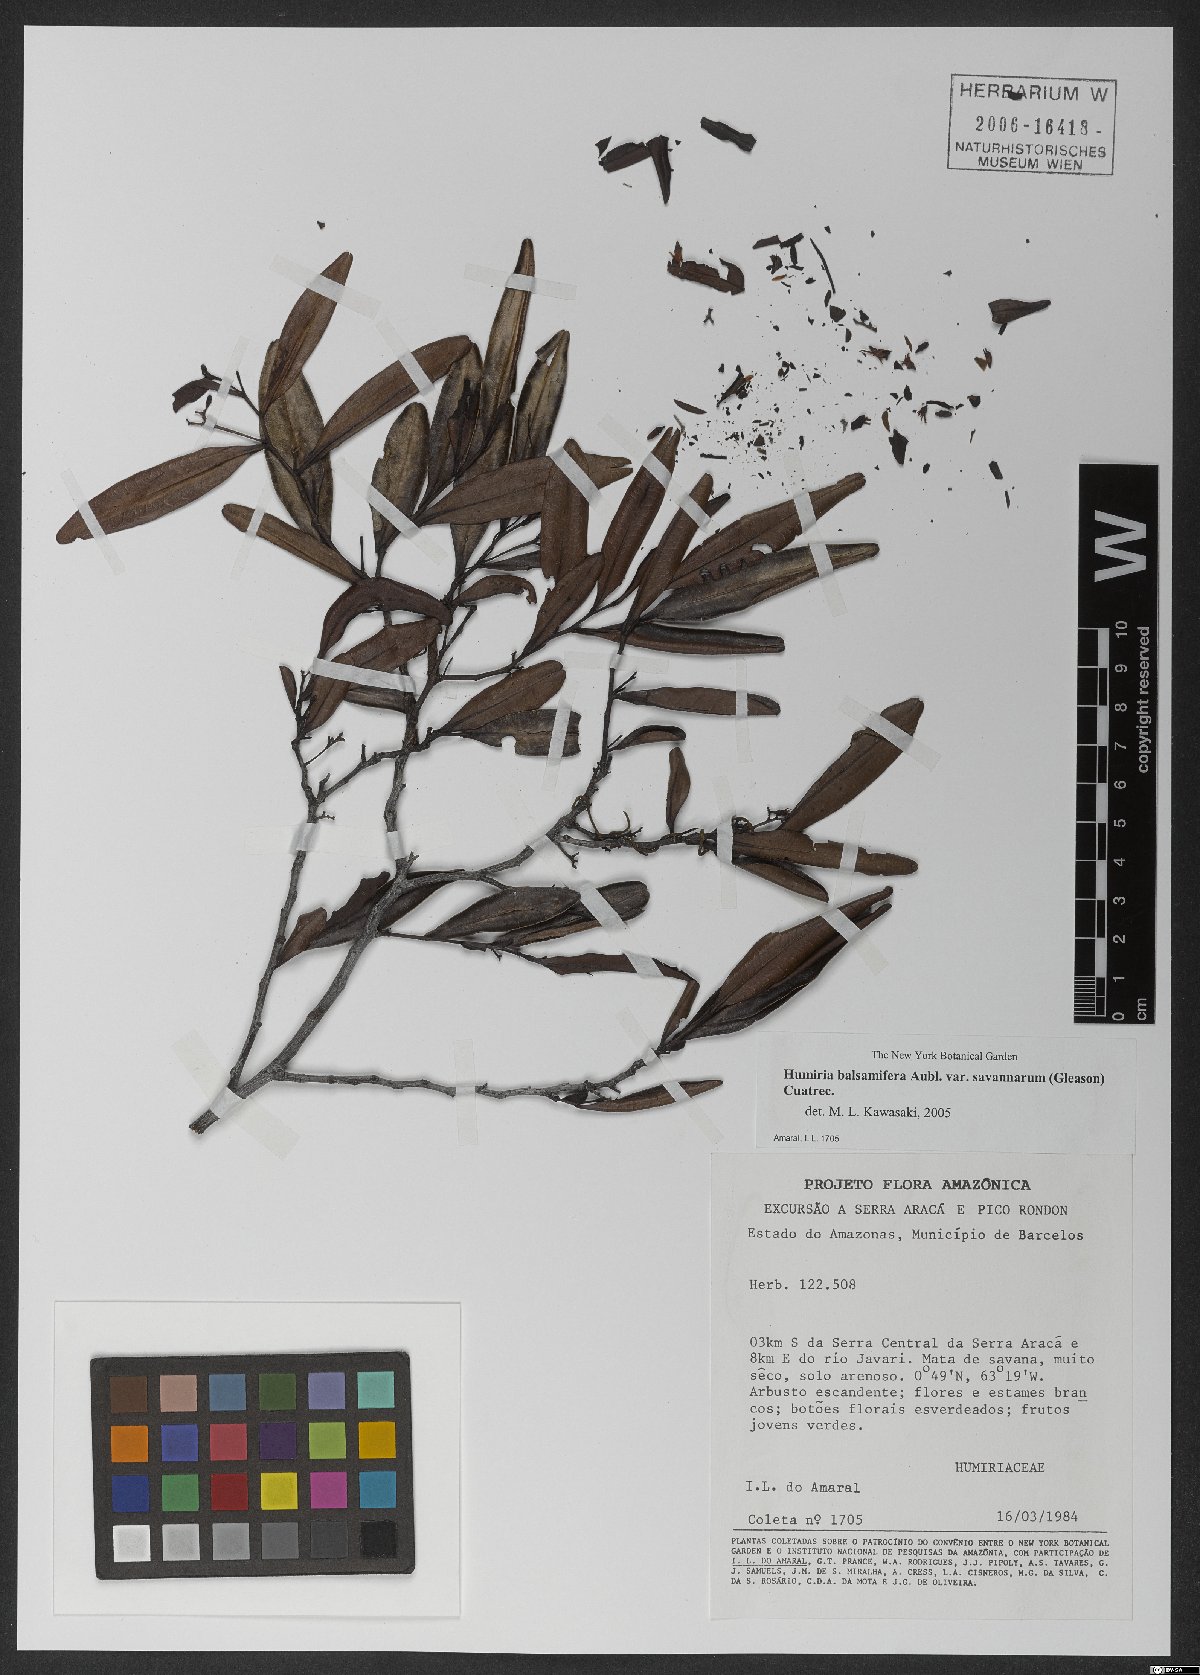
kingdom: Plantae
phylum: Tracheophyta
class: Magnoliopsida
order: Malpighiales
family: Humiriaceae
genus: Humiria
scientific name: Humiria balsamifera
